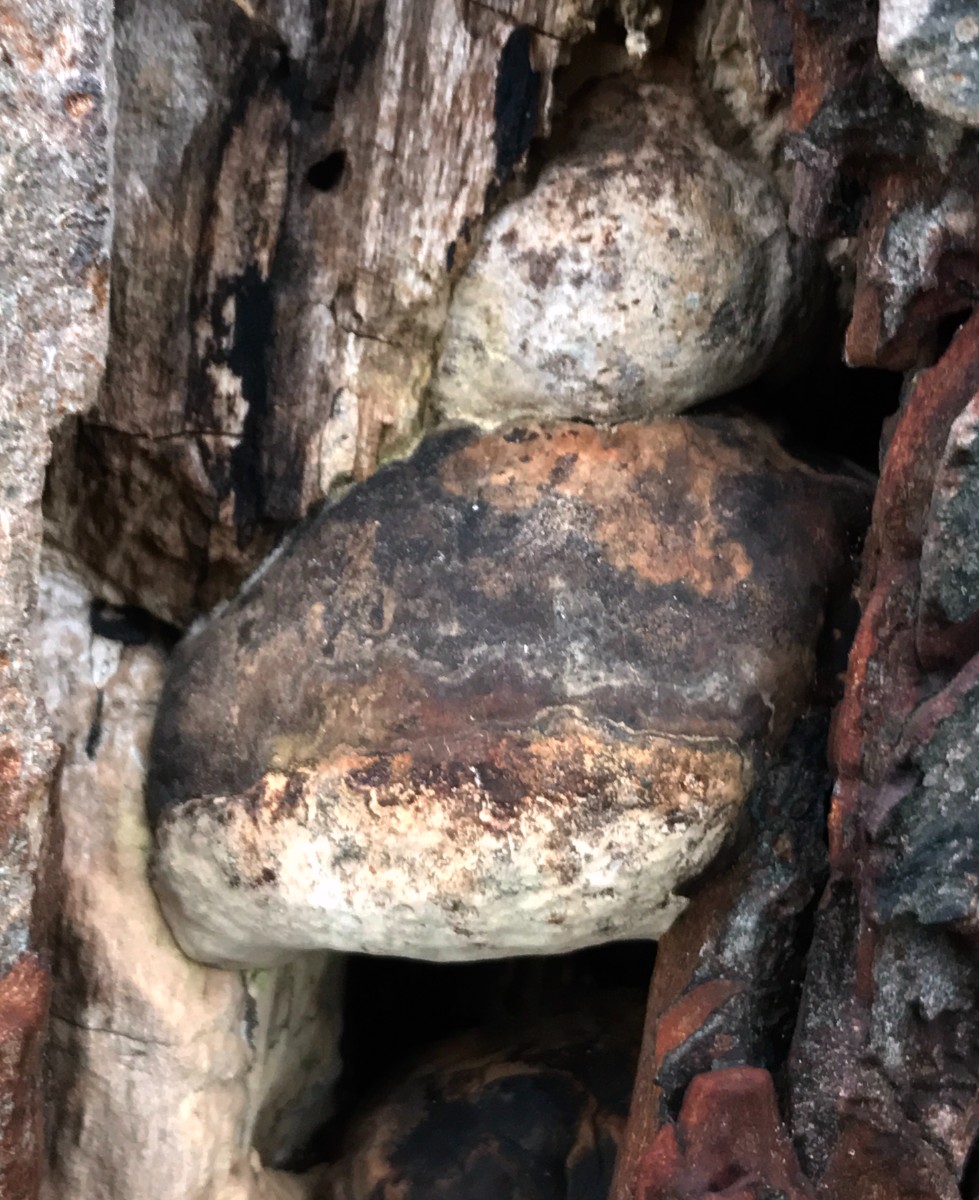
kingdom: Fungi
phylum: Basidiomycota
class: Agaricomycetes
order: Polyporales
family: Polyporaceae
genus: Ganoderma
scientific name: Ganoderma adspersum
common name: grov lakporesvamp
